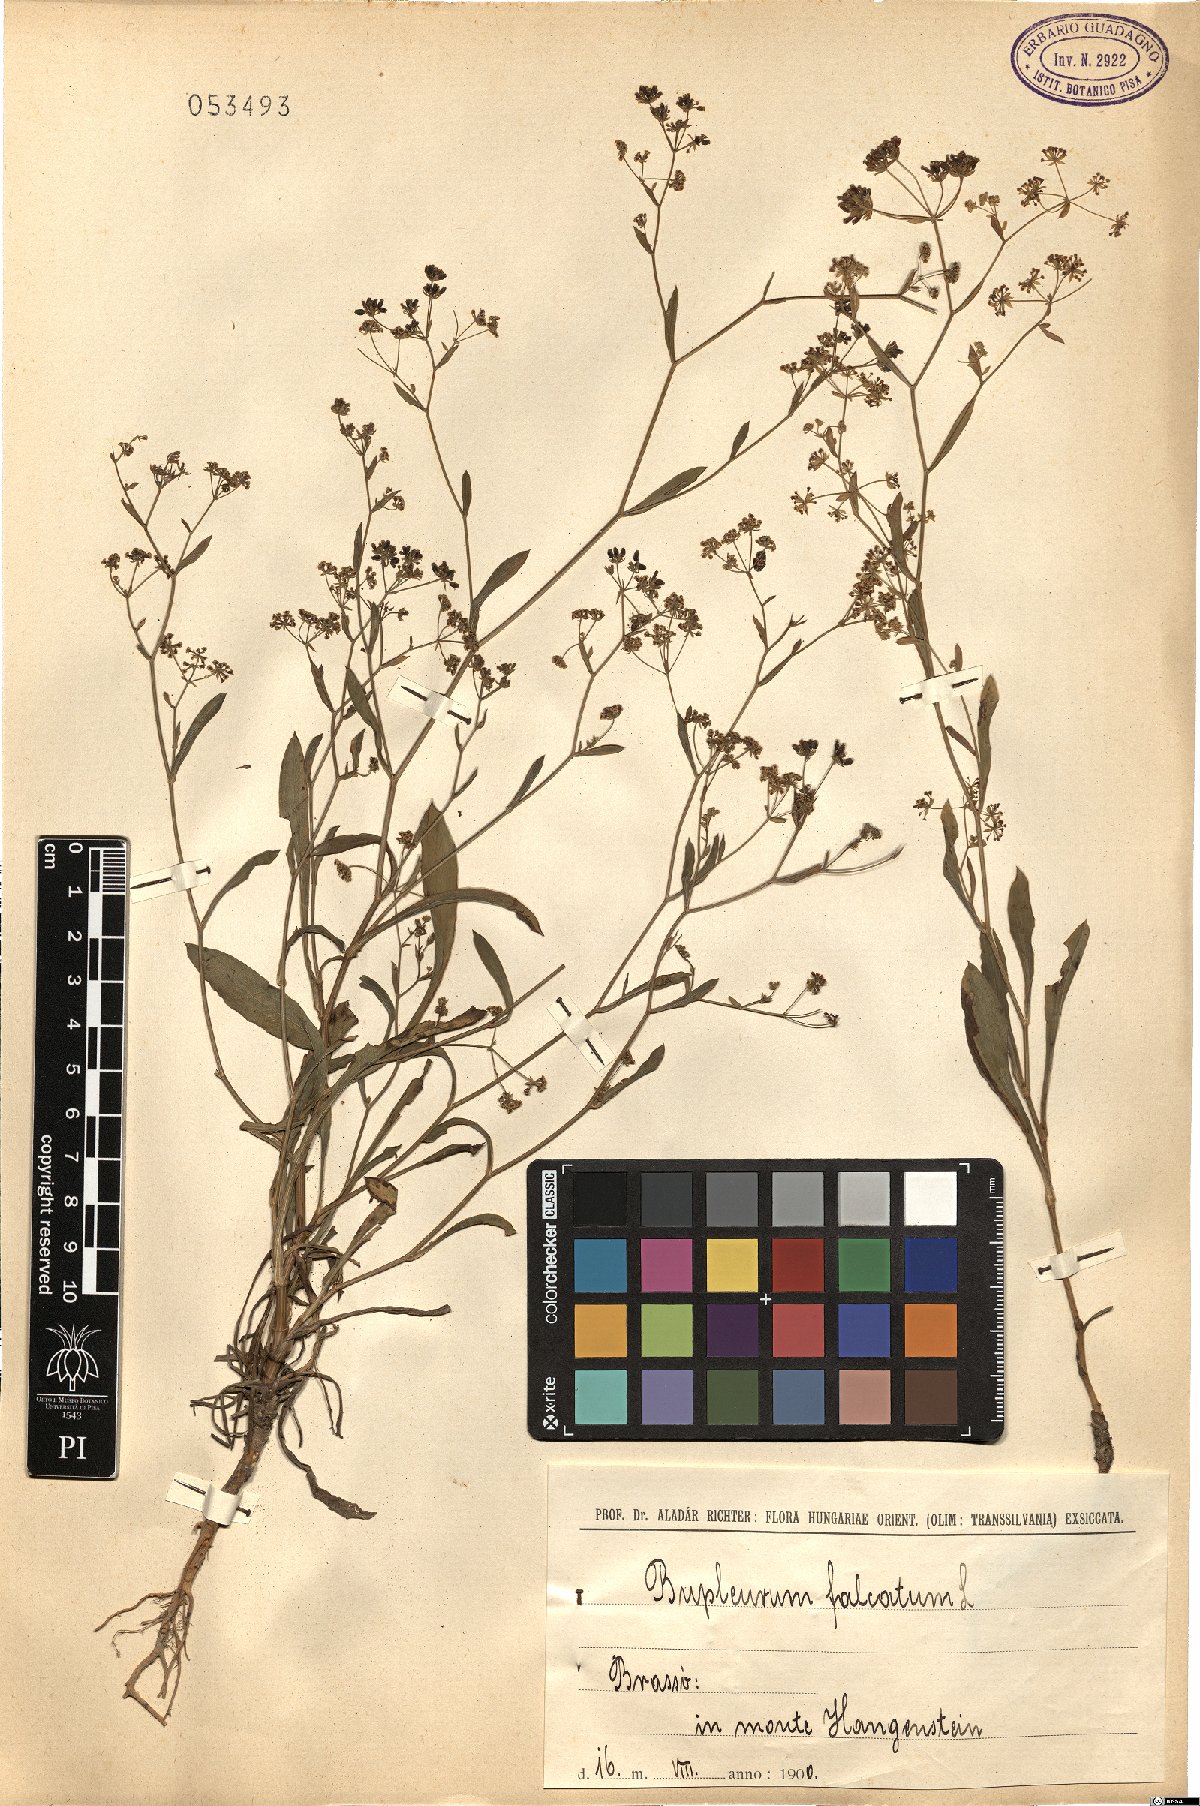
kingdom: Plantae
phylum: Tracheophyta
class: Magnoliopsida
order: Apiales
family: Apiaceae
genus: Bupleurum
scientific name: Bupleurum falcatum
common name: Sickle-leaved hare's-ear
